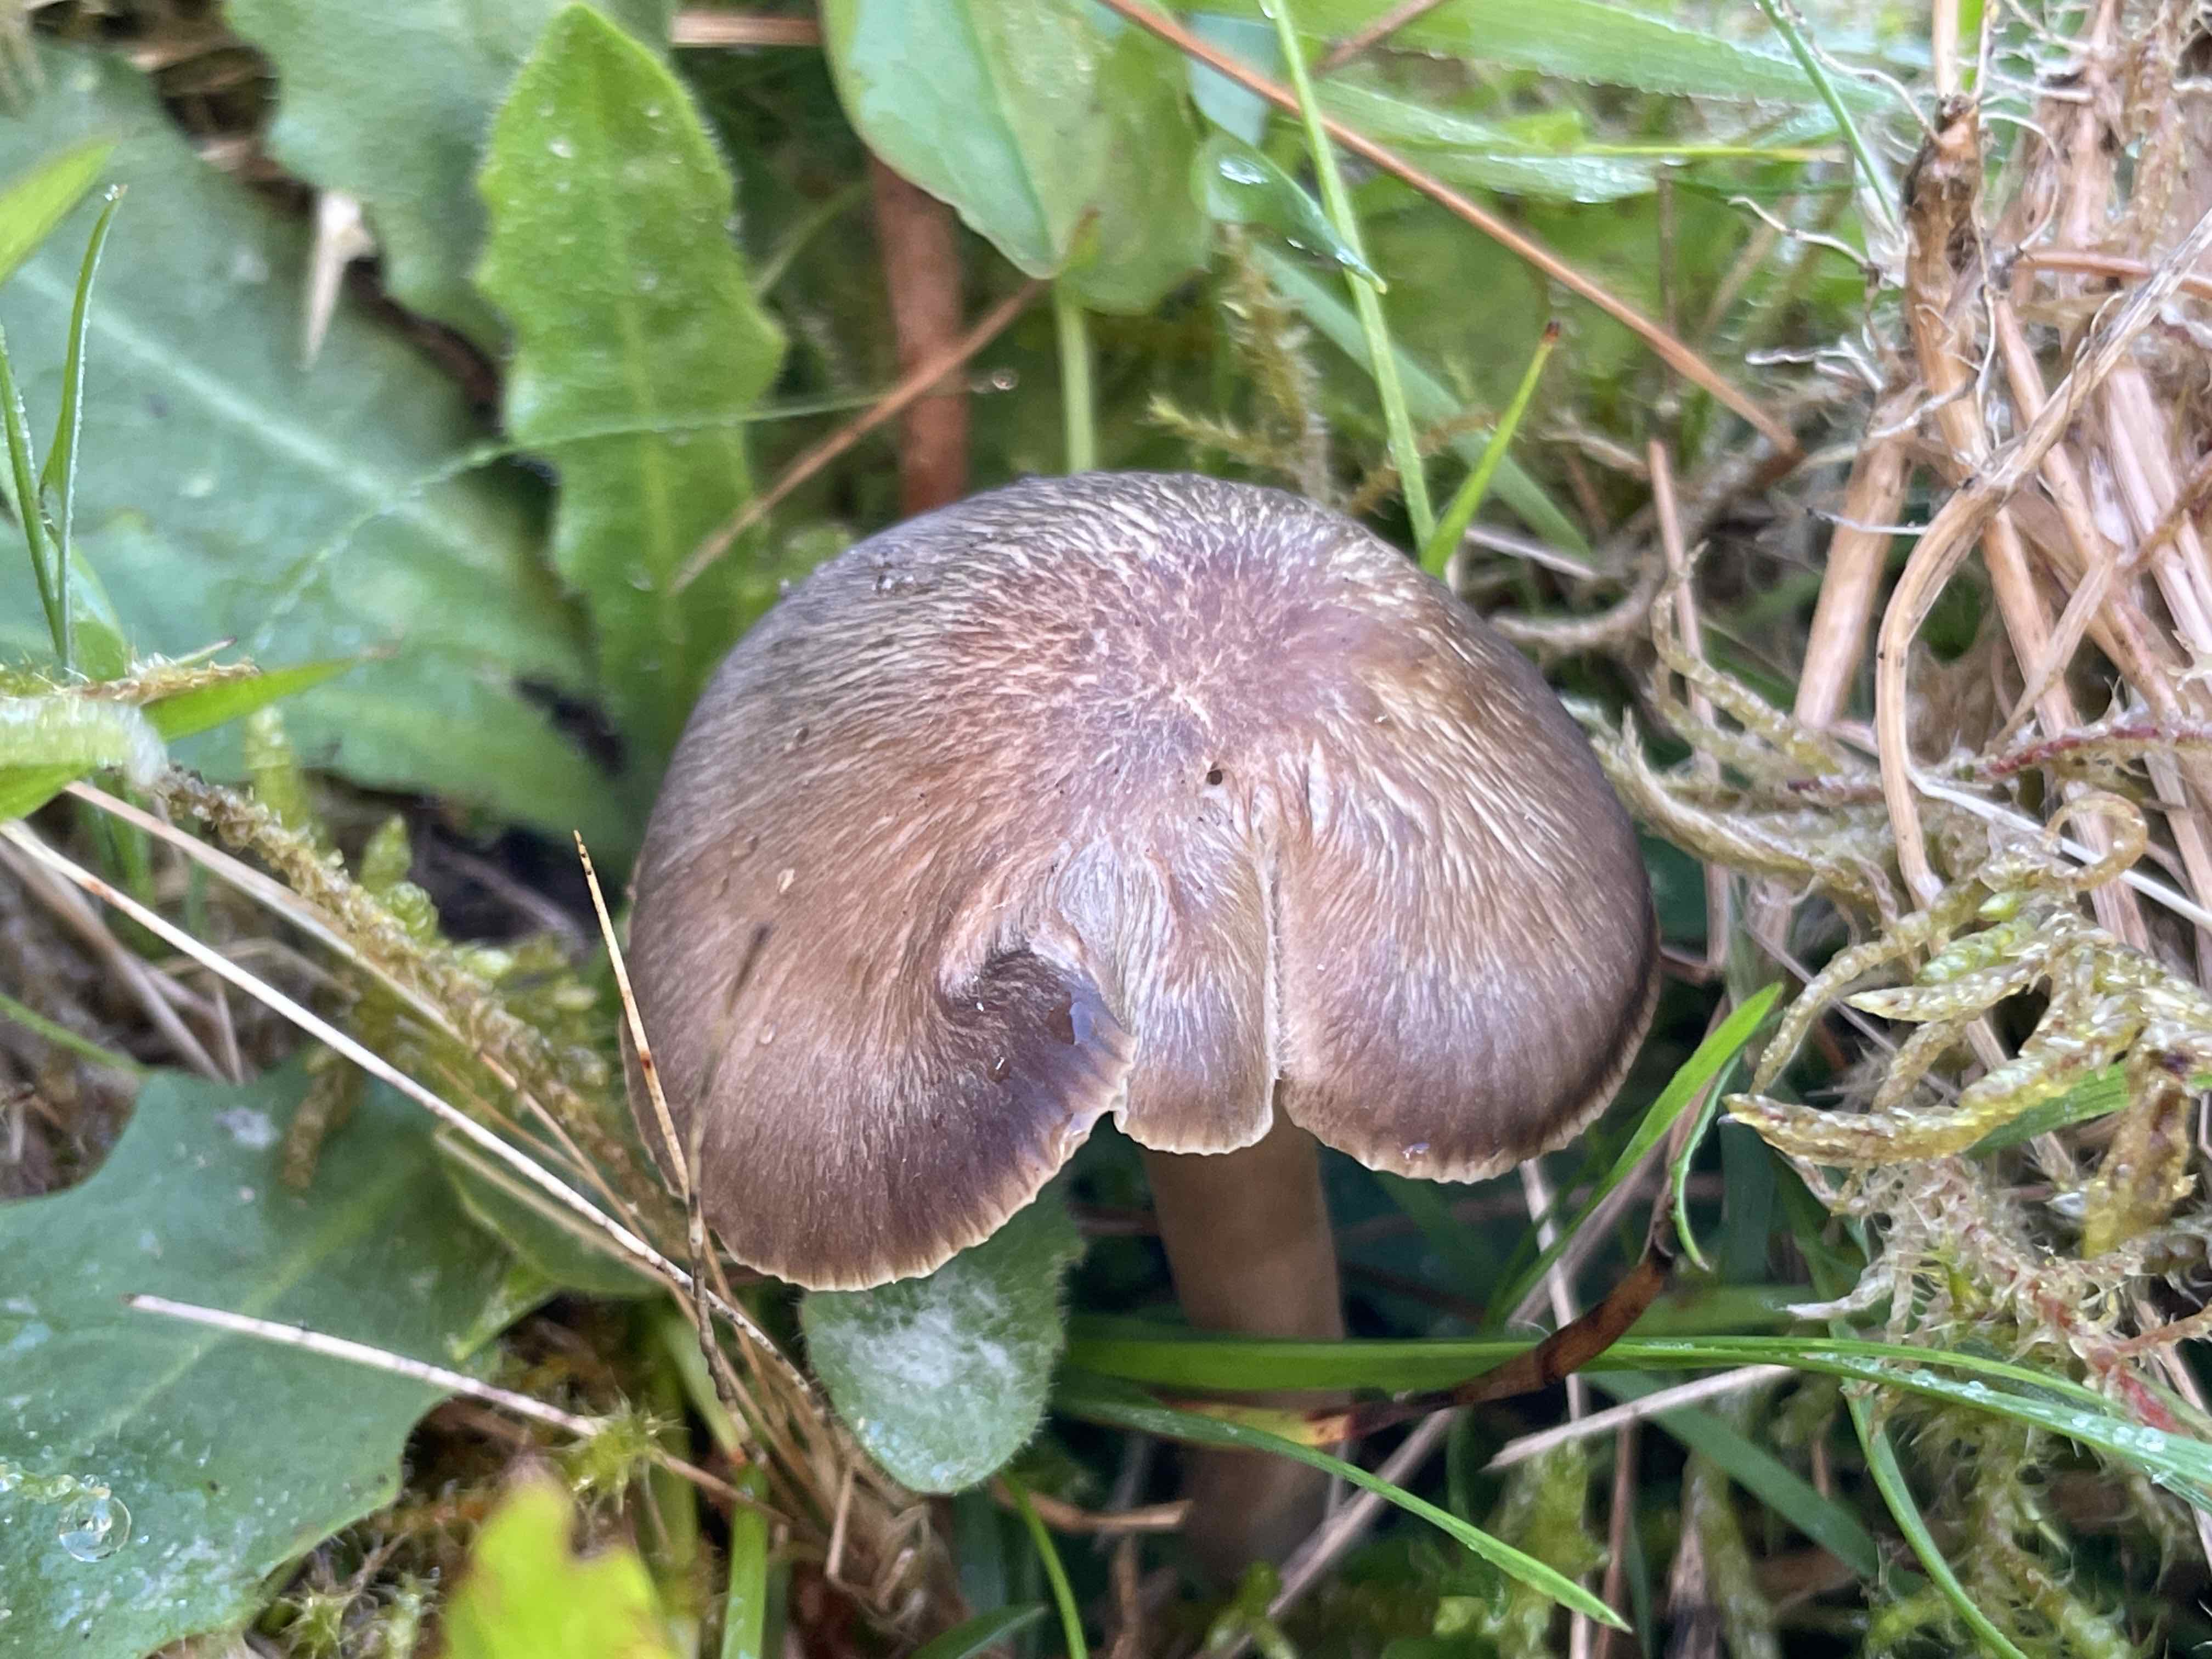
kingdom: Fungi
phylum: Basidiomycota
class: Agaricomycetes
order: Agaricales
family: Hygrophoraceae
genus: Neohygrocybe
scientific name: Neohygrocybe nitrata
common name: stinkende vokshat
